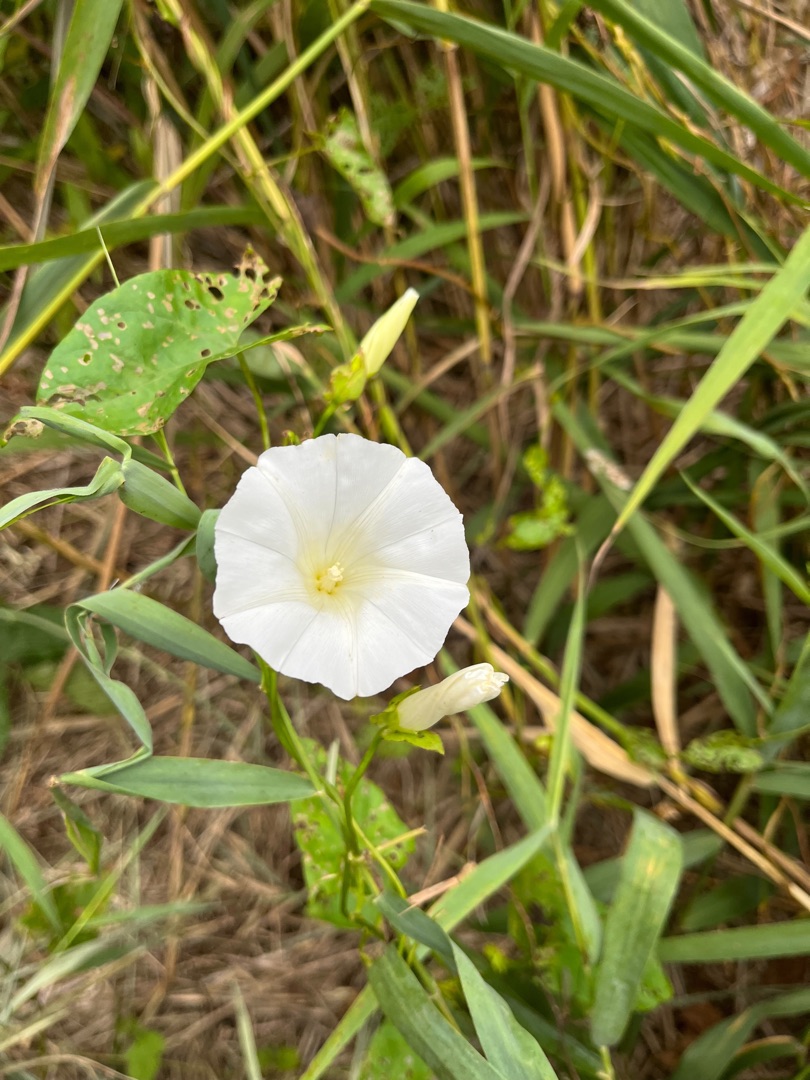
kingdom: Plantae
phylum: Tracheophyta
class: Magnoliopsida
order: Solanales
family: Convolvulaceae
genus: Calystegia
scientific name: Calystegia sepium
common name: Gærde-snerle
